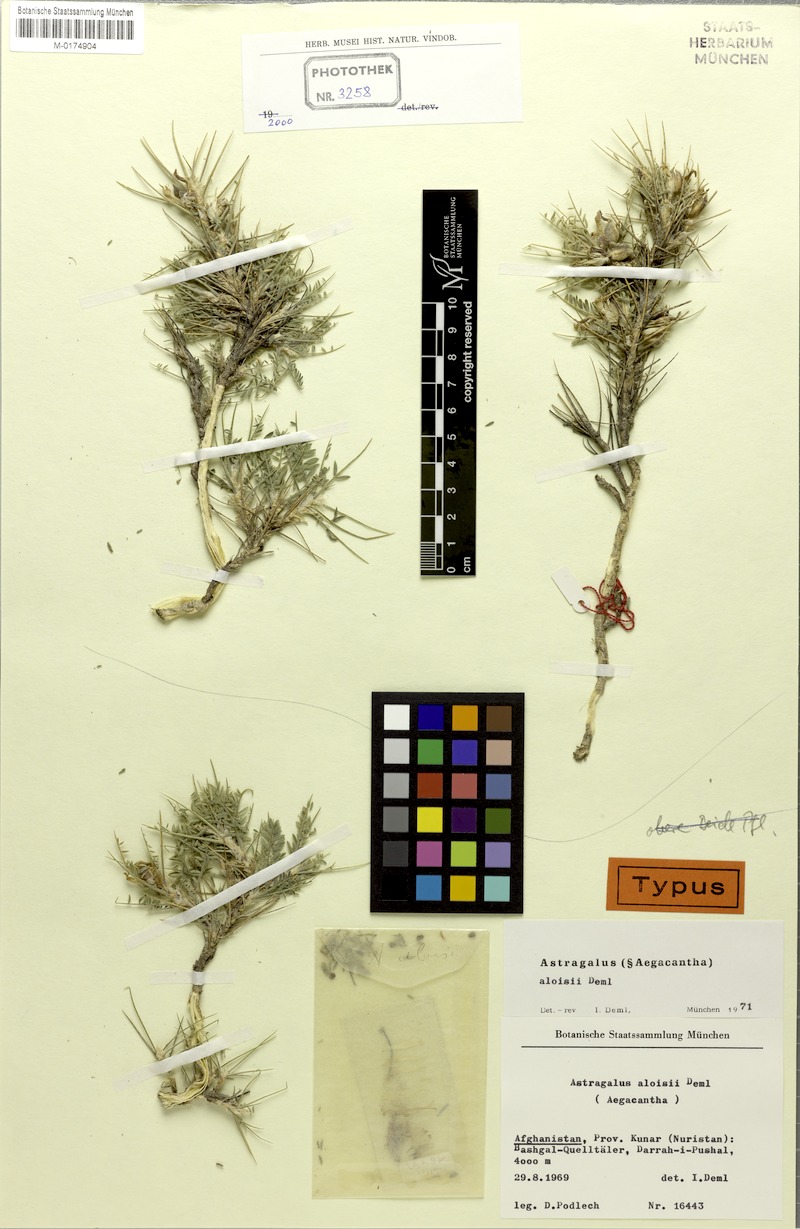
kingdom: Plantae
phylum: Tracheophyta
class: Magnoliopsida
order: Fabales
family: Fabaceae
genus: Astragalus
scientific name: Astragalus aloisii
